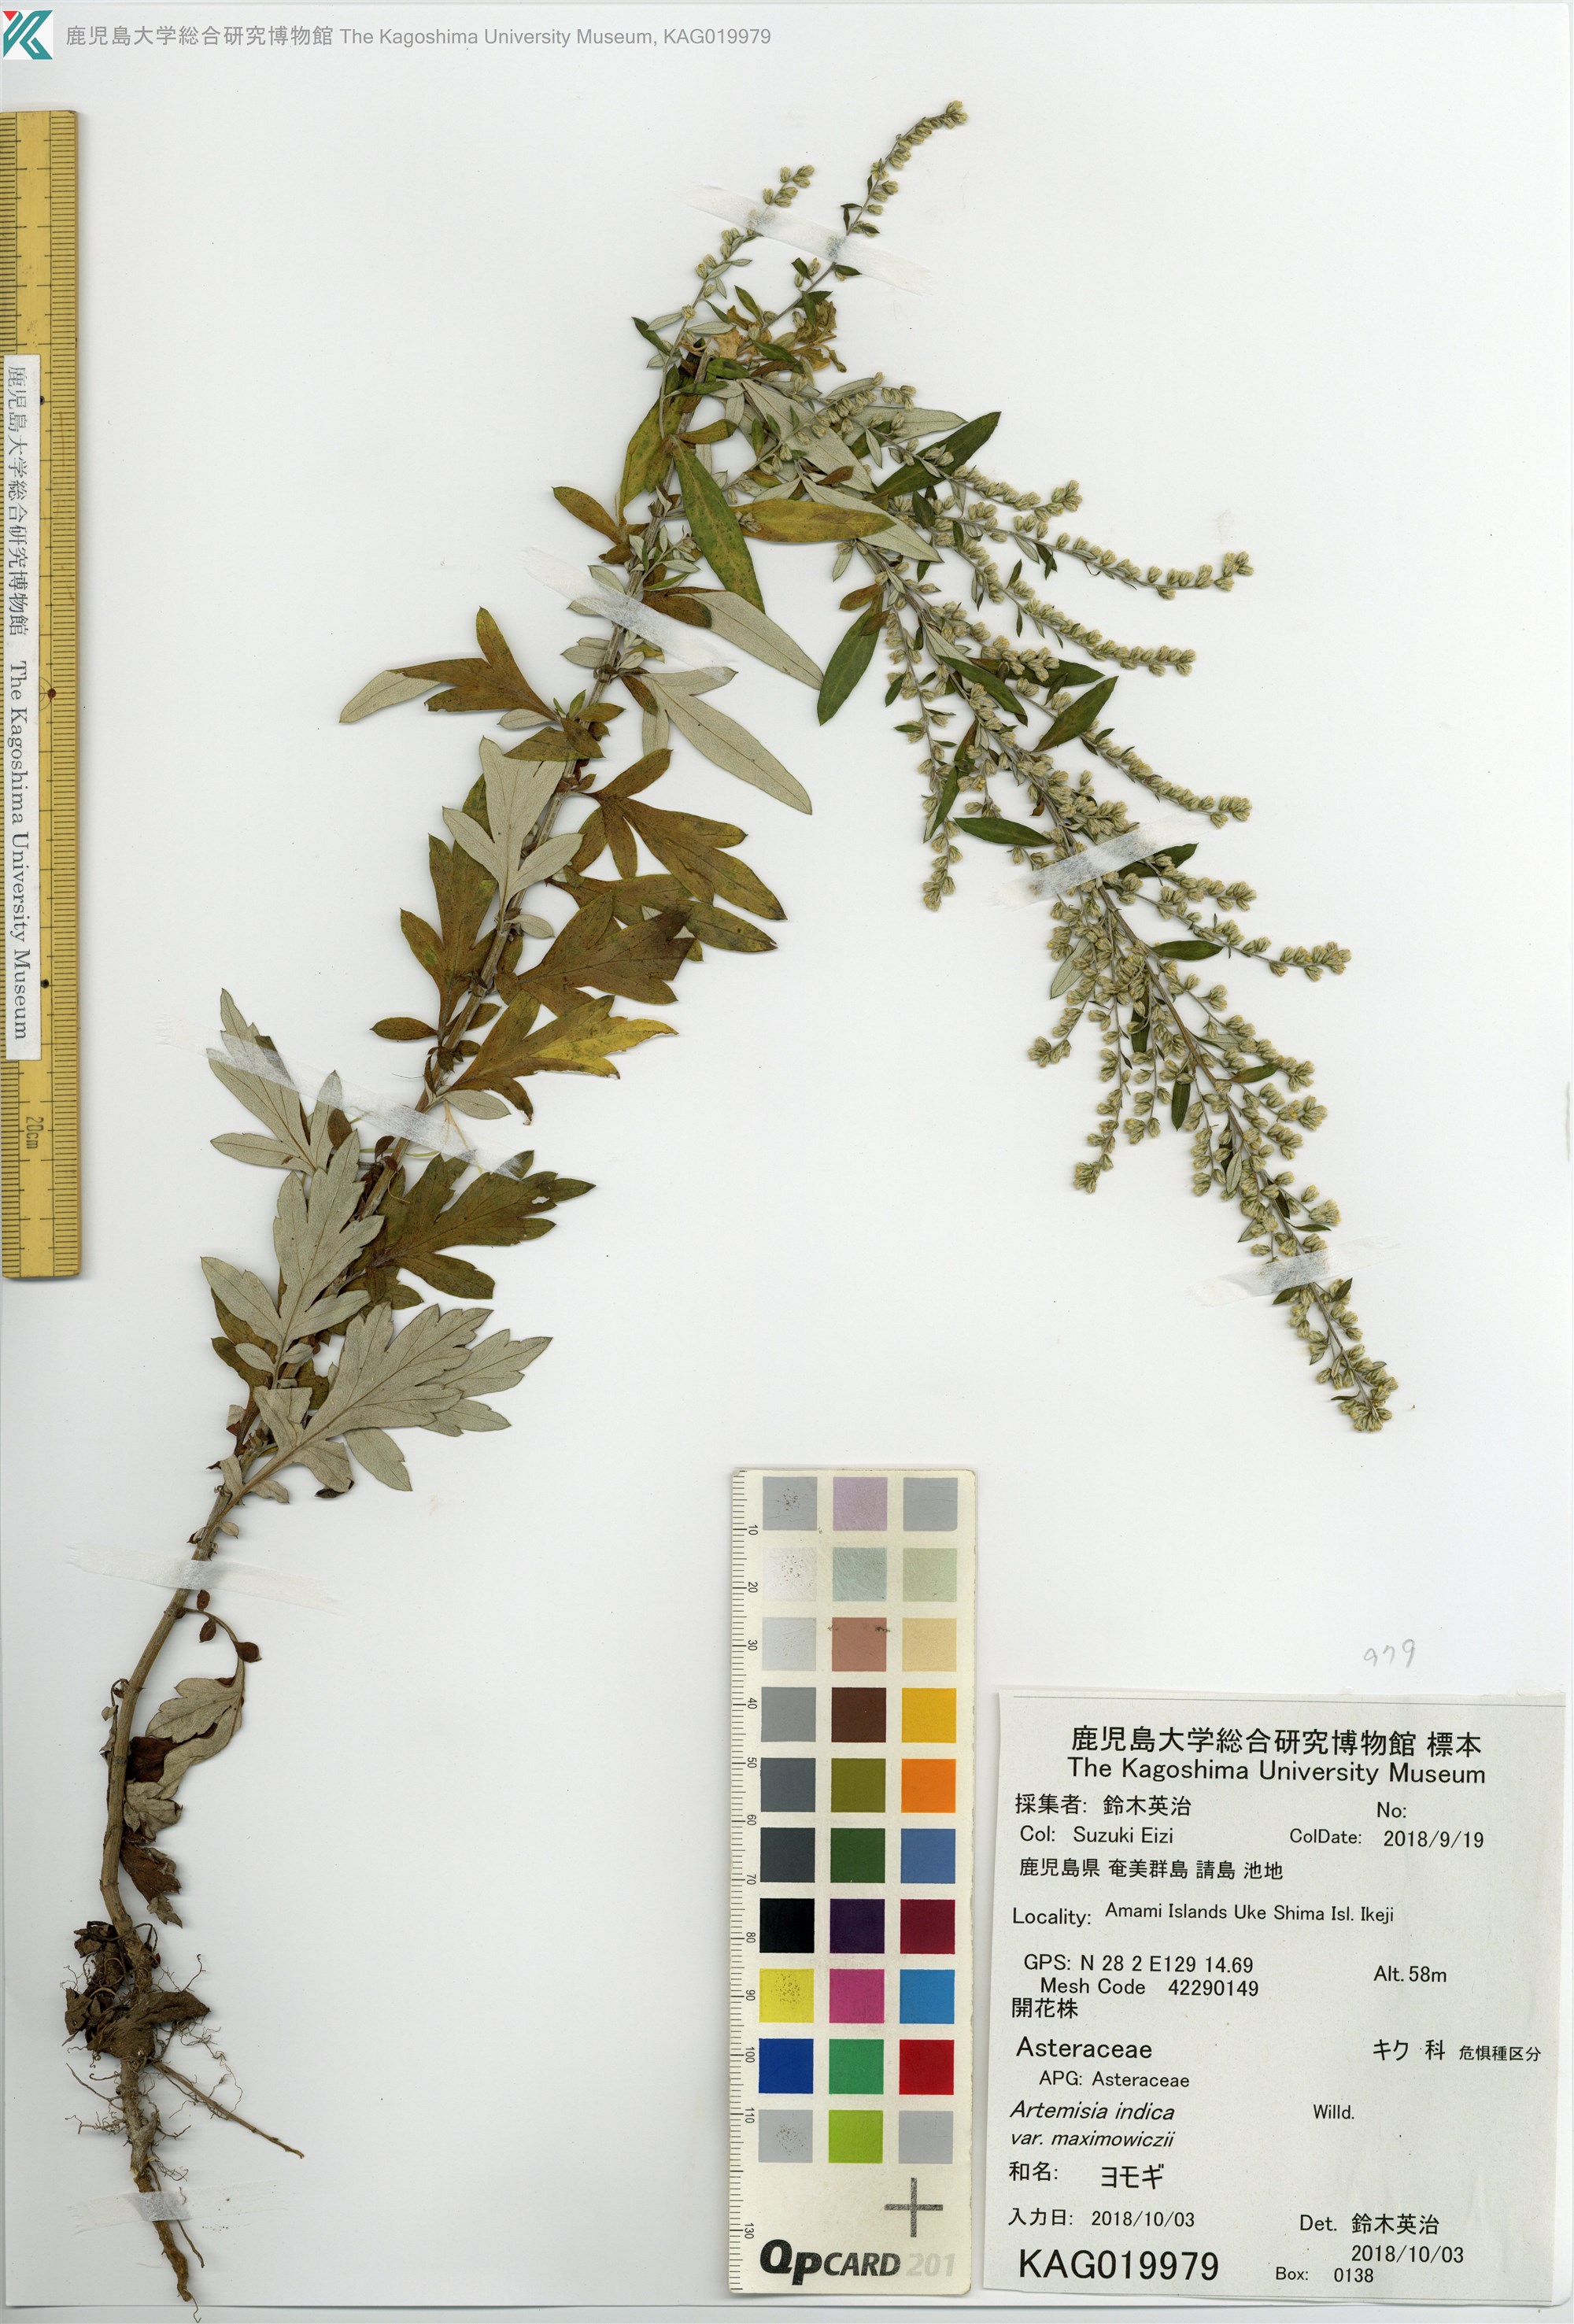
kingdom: Plantae
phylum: Tracheophyta
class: Magnoliopsida
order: Asterales
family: Asteraceae
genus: Artemisia
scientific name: Artemisia indica
